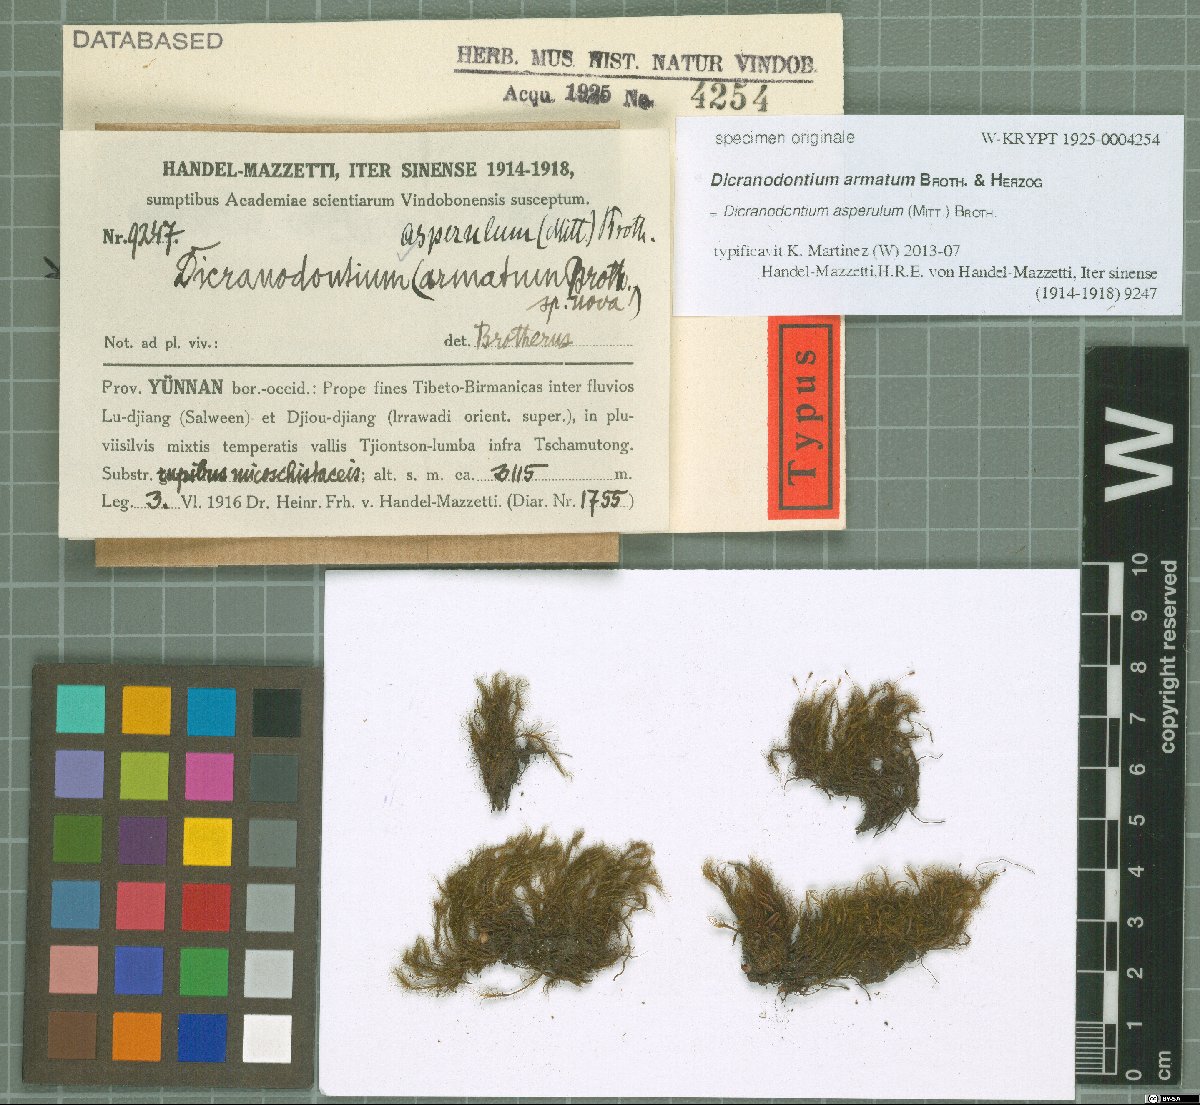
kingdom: Plantae
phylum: Bryophyta
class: Bryopsida
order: Dicranales
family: Dicranaceae
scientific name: Dicranaceae
